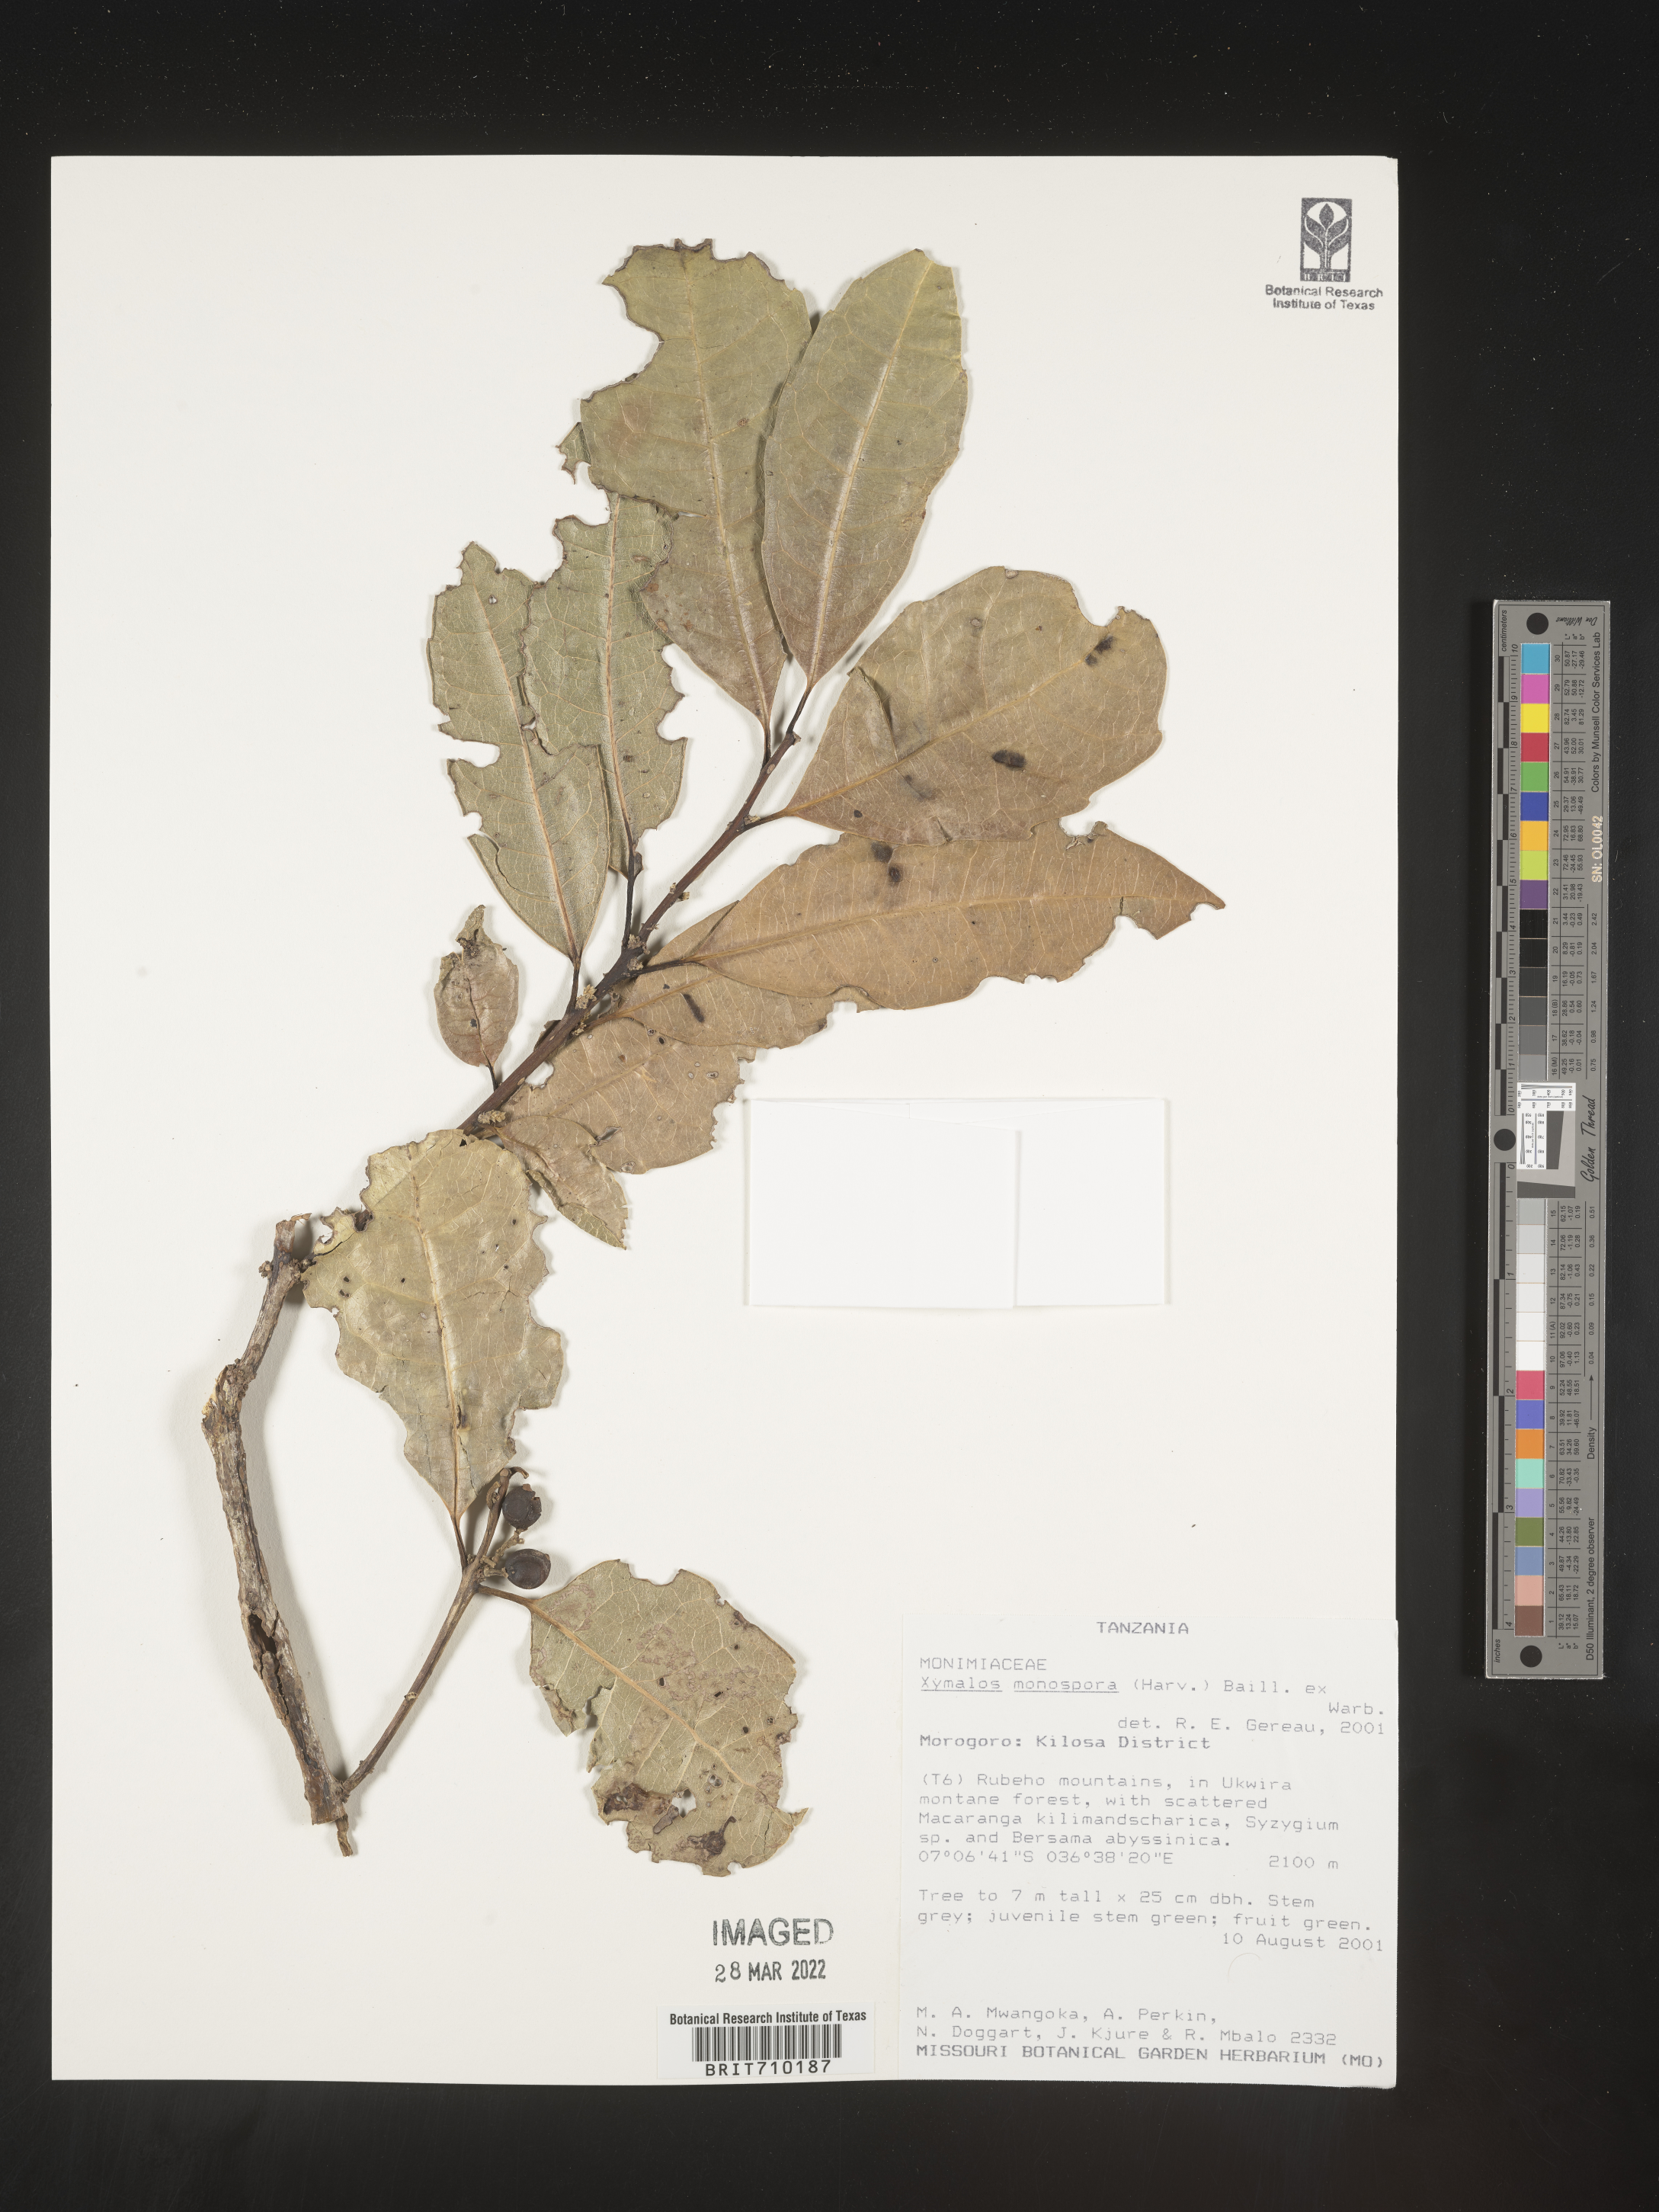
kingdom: Plantae
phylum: Tracheophyta
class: Magnoliopsida
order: Laurales
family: Monimiaceae
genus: Xymalos
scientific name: Xymalos
